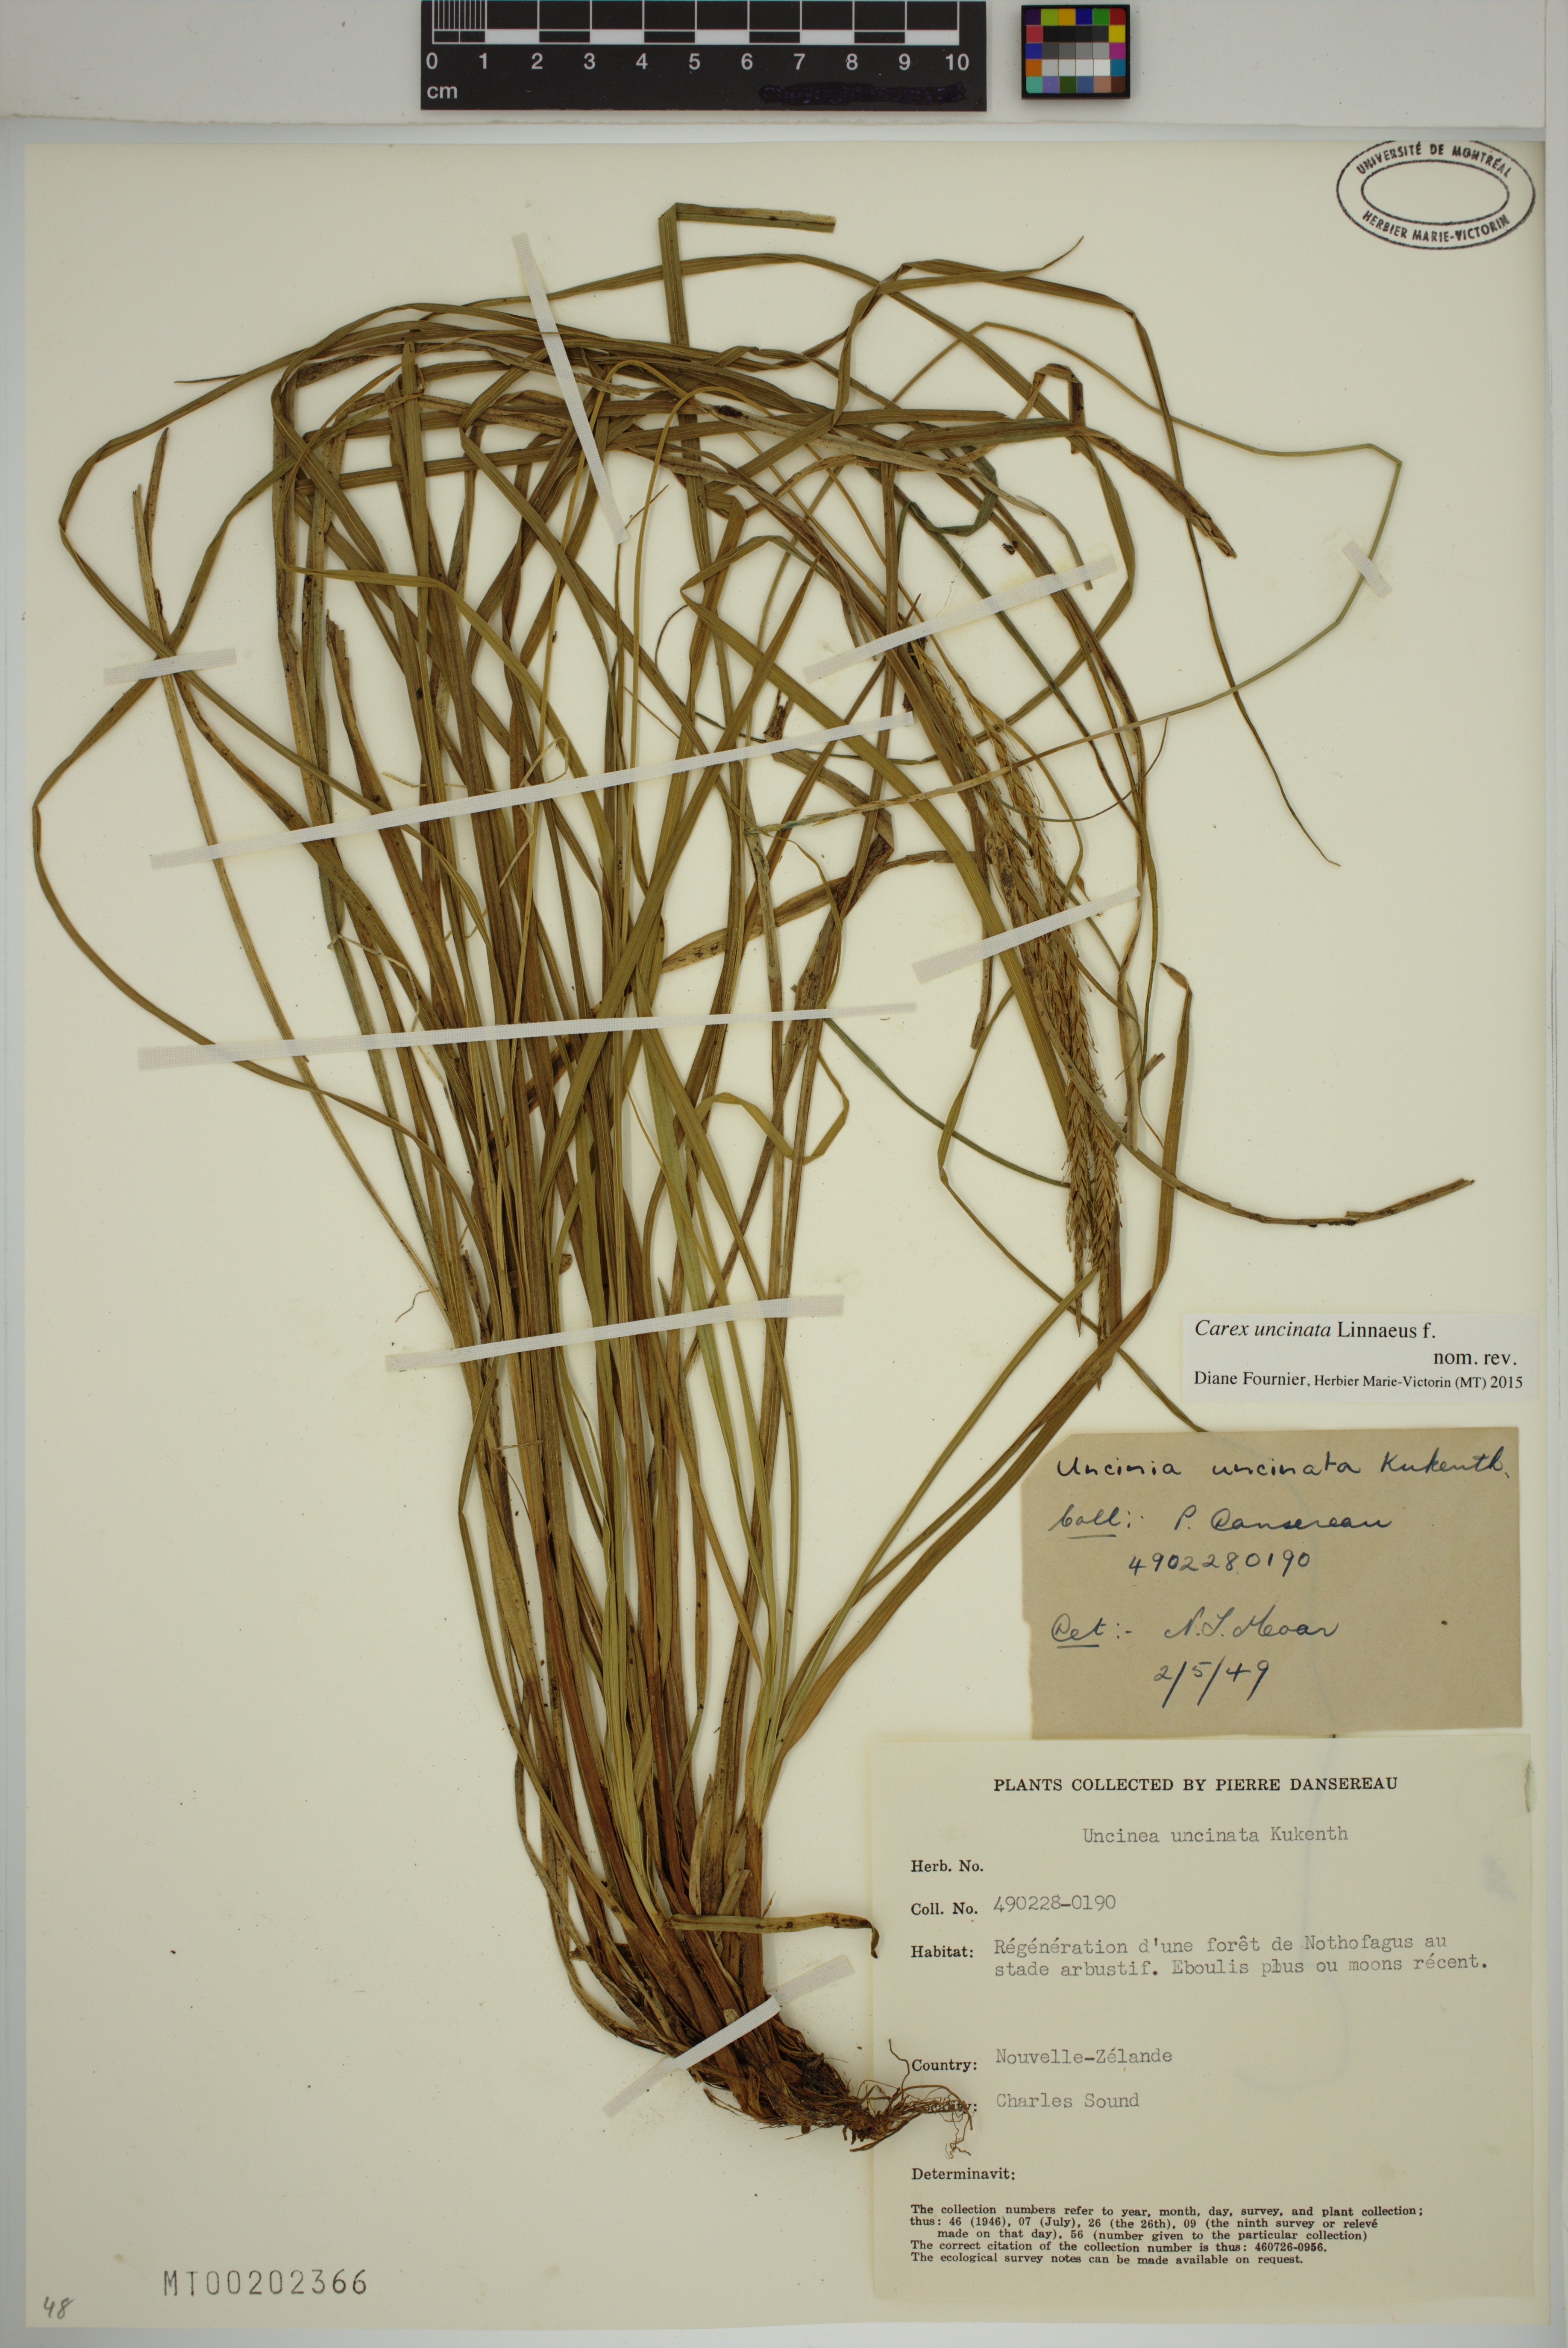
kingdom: Plantae
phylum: Tracheophyta
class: Liliopsida
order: Poales
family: Cyperaceae
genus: Carex
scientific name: Carex uncinata
